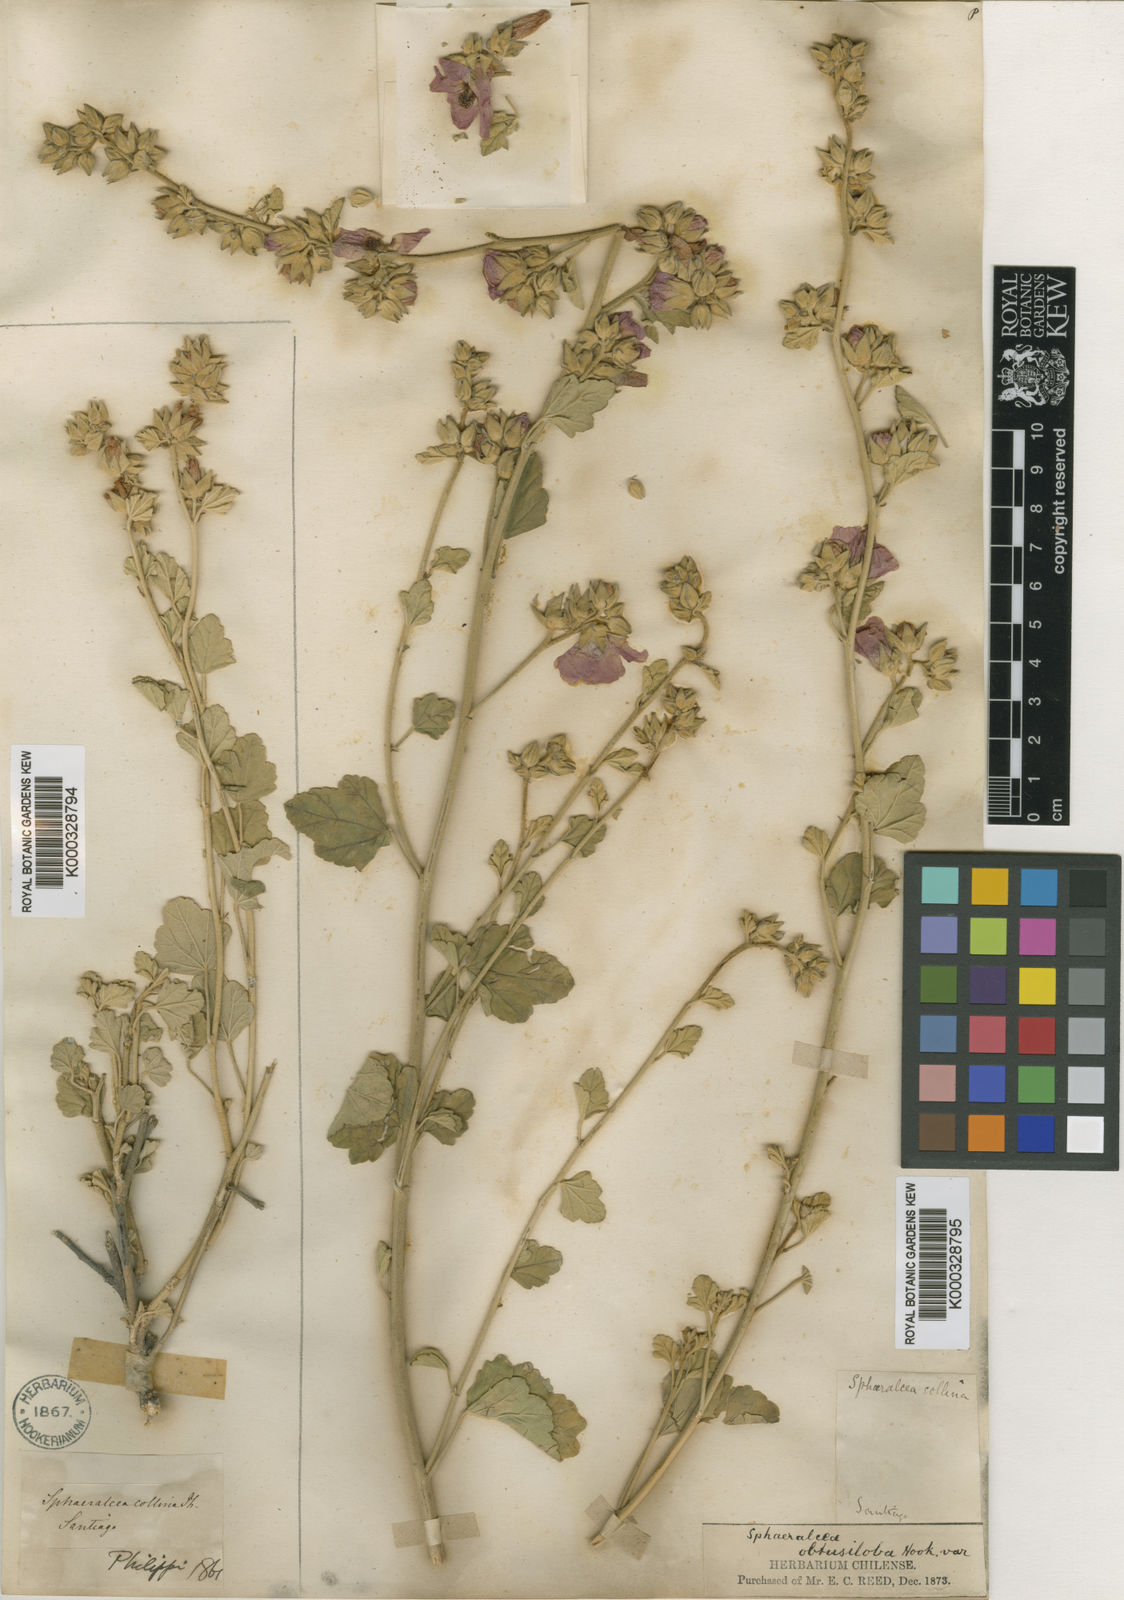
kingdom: Plantae
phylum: Tracheophyta
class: Magnoliopsida
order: Malvales
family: Malvaceae
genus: Sphaeralcea
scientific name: Sphaeralcea obtusiloba
